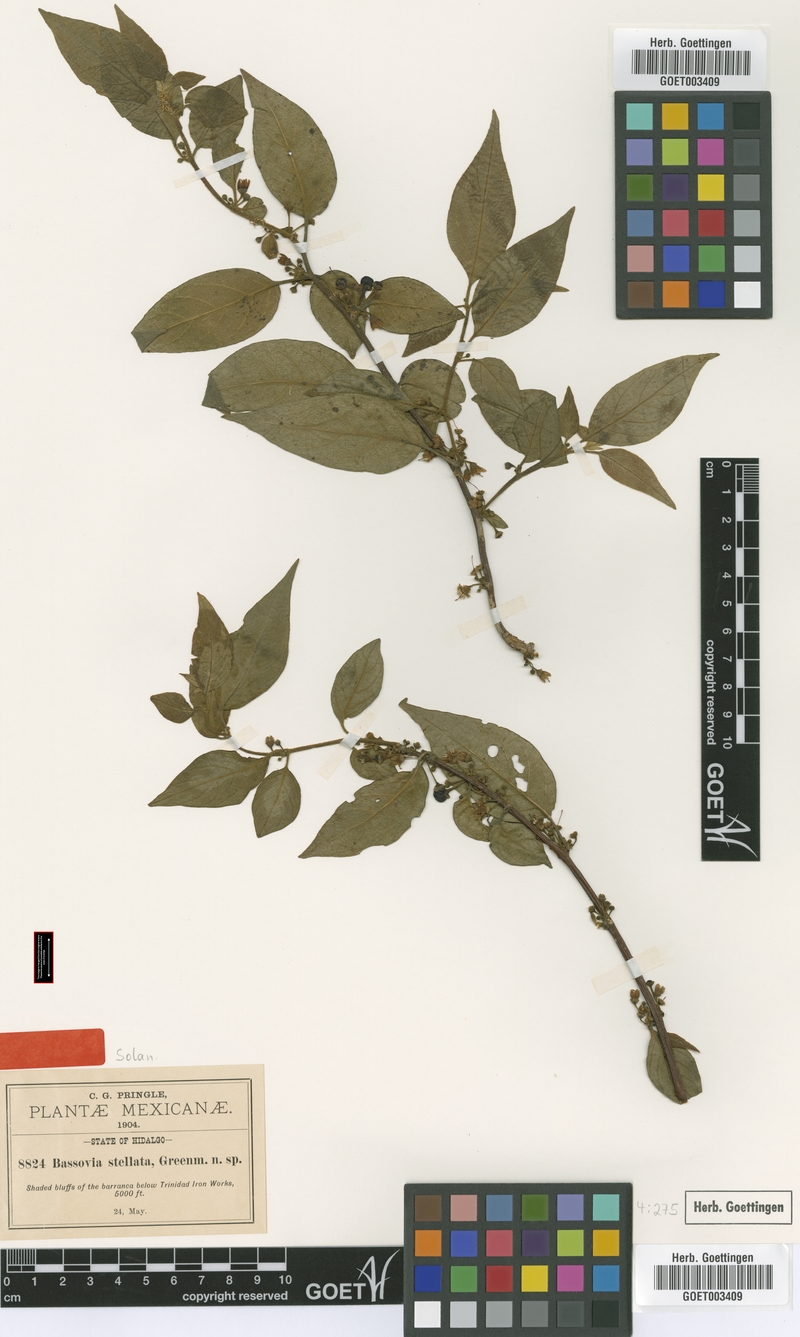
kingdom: Plantae
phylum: Tracheophyta
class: Magnoliopsida
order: Solanales
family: Solanaceae
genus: Witheringia
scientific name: Witheringia stellata
